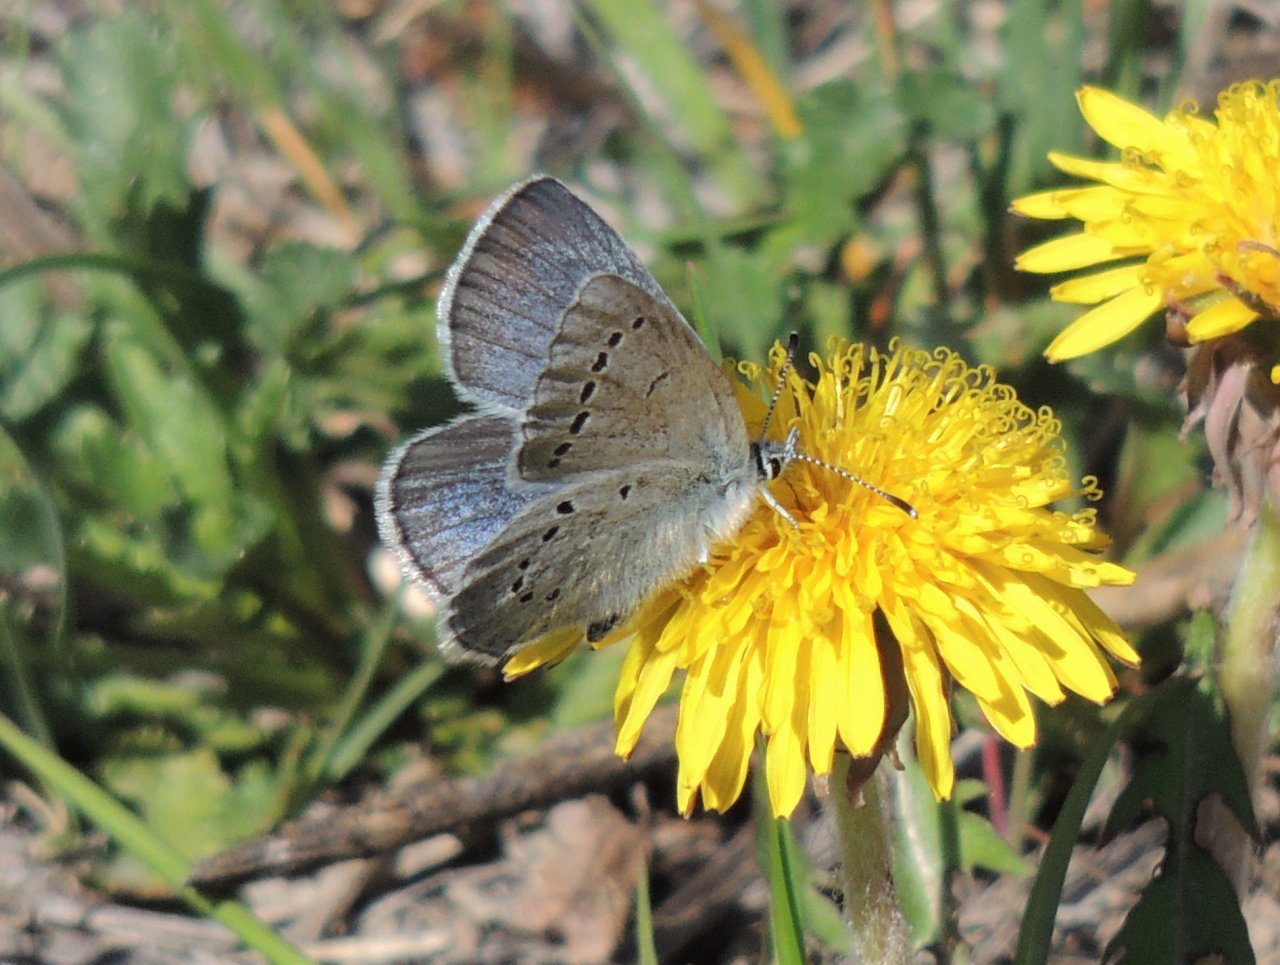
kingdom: Animalia
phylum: Arthropoda
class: Insecta
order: Lepidoptera
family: Lycaenidae
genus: Glaucopsyche
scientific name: Glaucopsyche lygdamus
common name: Silvery Blue
